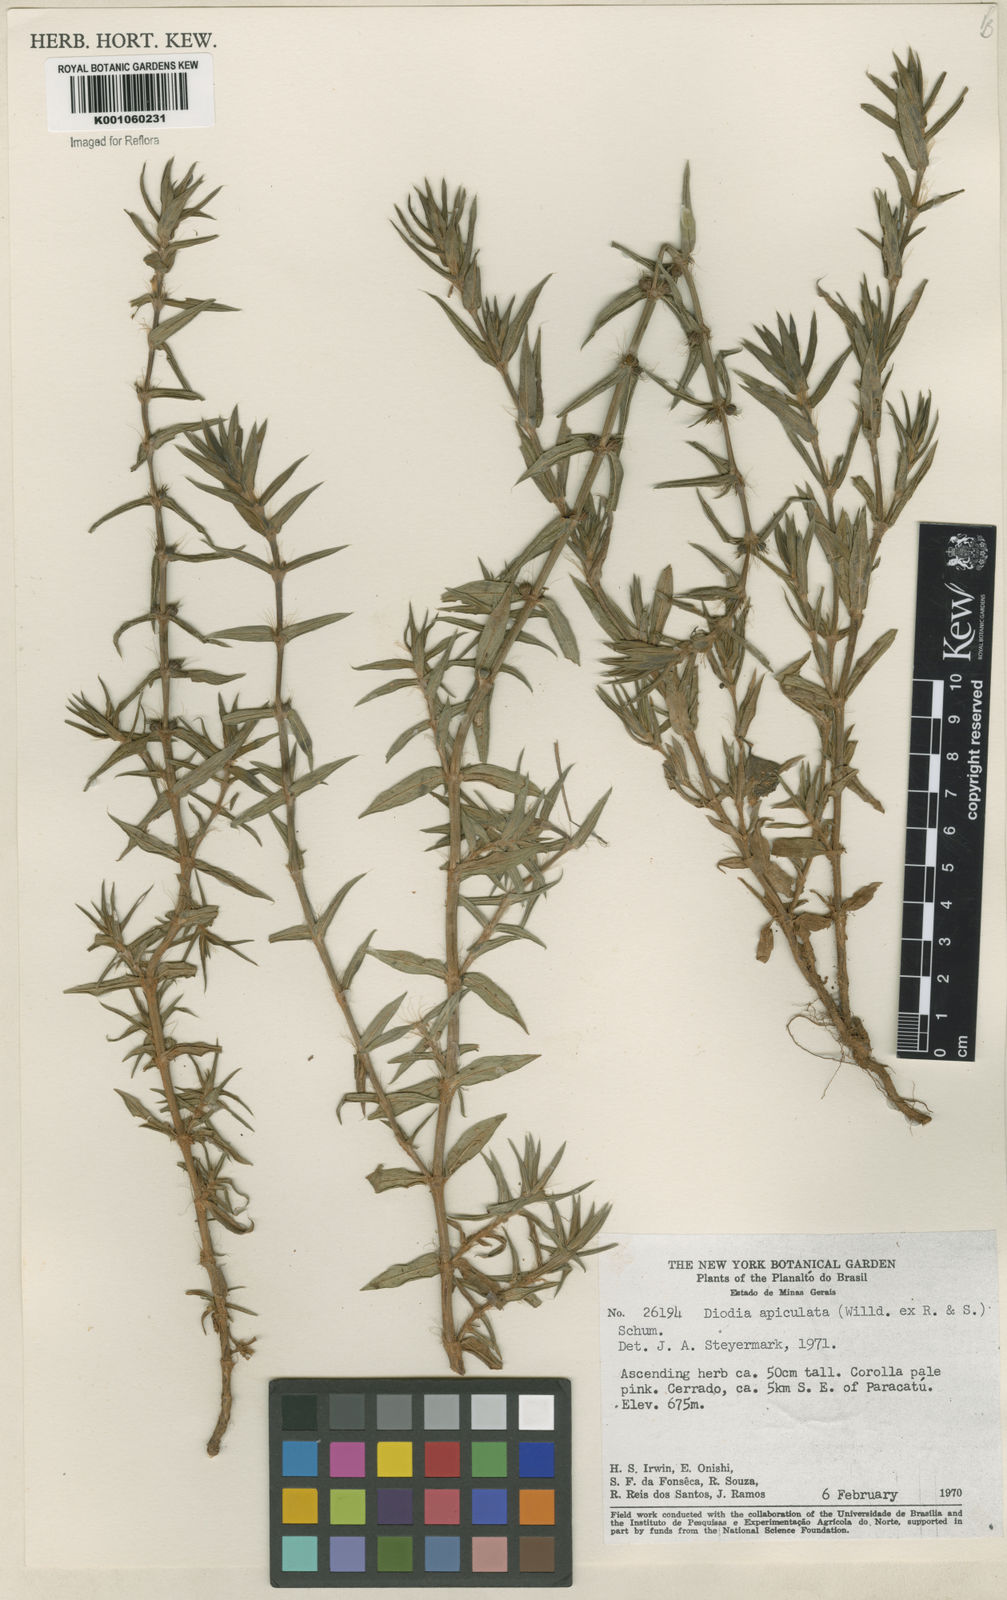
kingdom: Plantae
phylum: Tracheophyta
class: Magnoliopsida
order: Gentianales
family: Rubiaceae
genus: Hexasepalum
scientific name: Hexasepalum apiculatum
